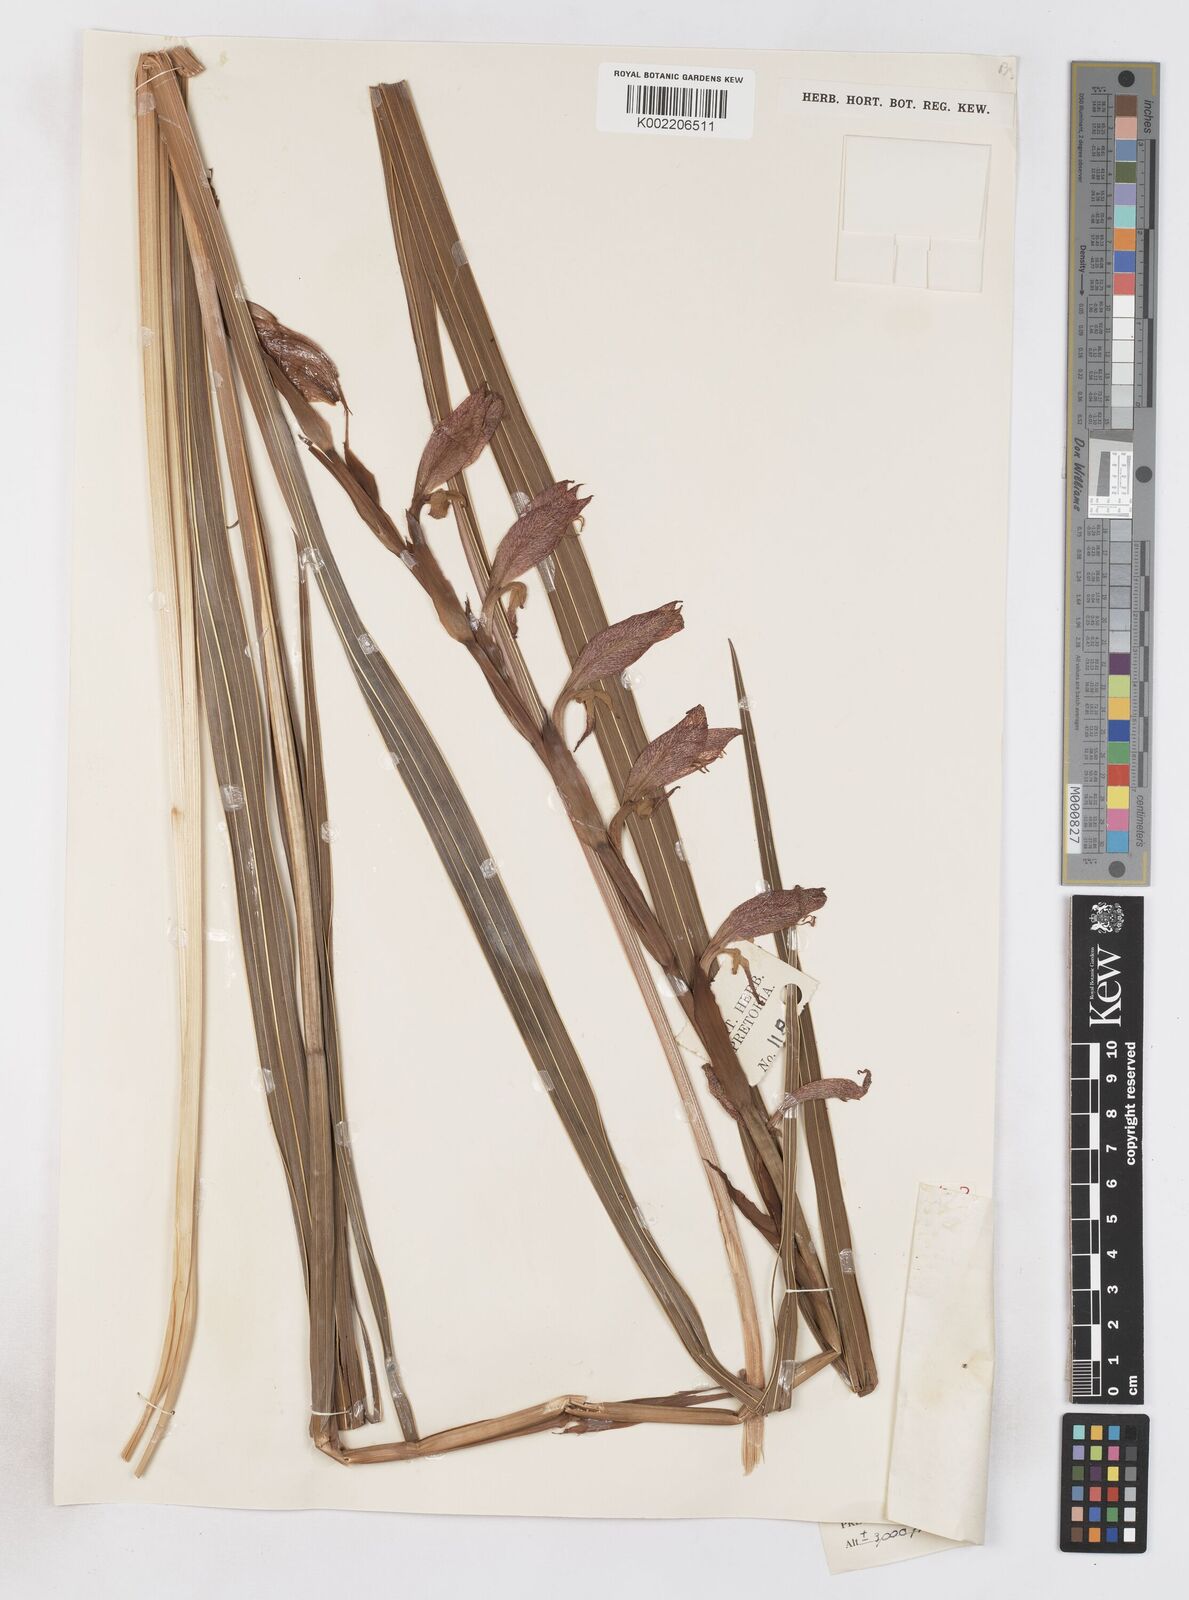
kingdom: Plantae
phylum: Tracheophyta
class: Liliopsida
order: Asparagales
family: Iridaceae
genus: Gladiolus
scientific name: Gladiolus dalenii
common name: Cornflag
